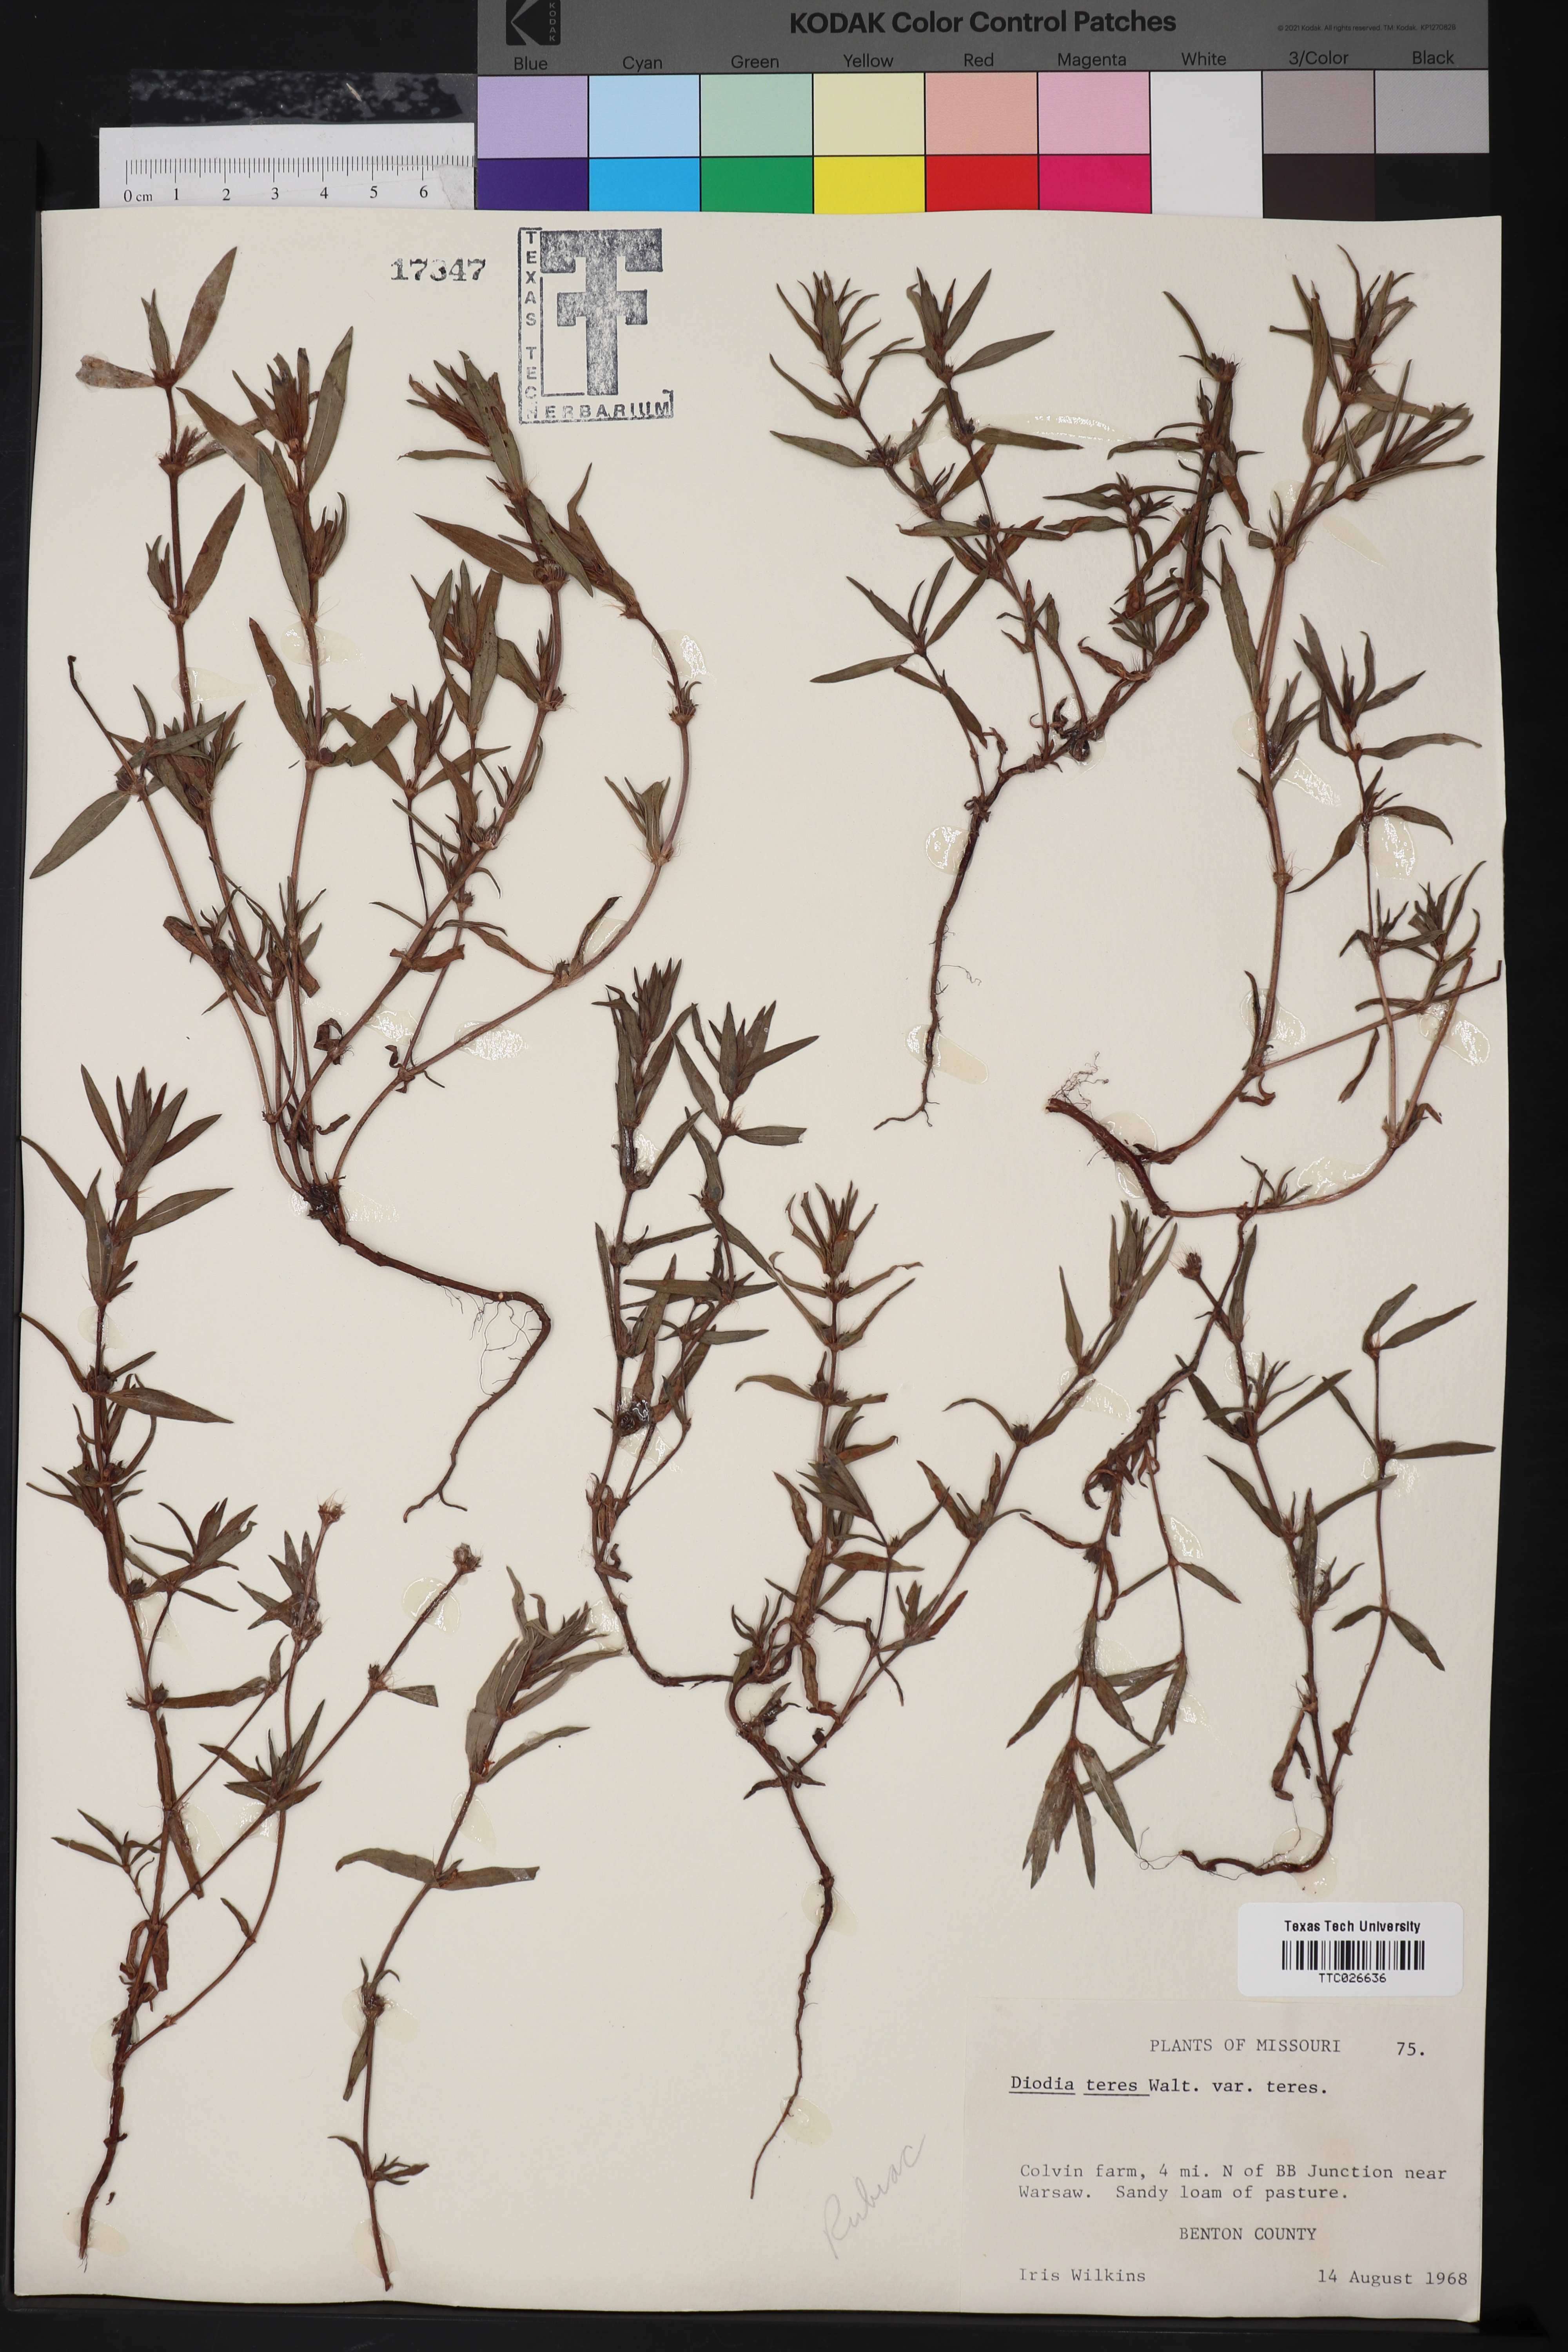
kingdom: Plantae
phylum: Tracheophyta
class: Magnoliopsida
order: Gentianales
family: Rubiaceae
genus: Hexasepalum
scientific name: Hexasepalum teres
